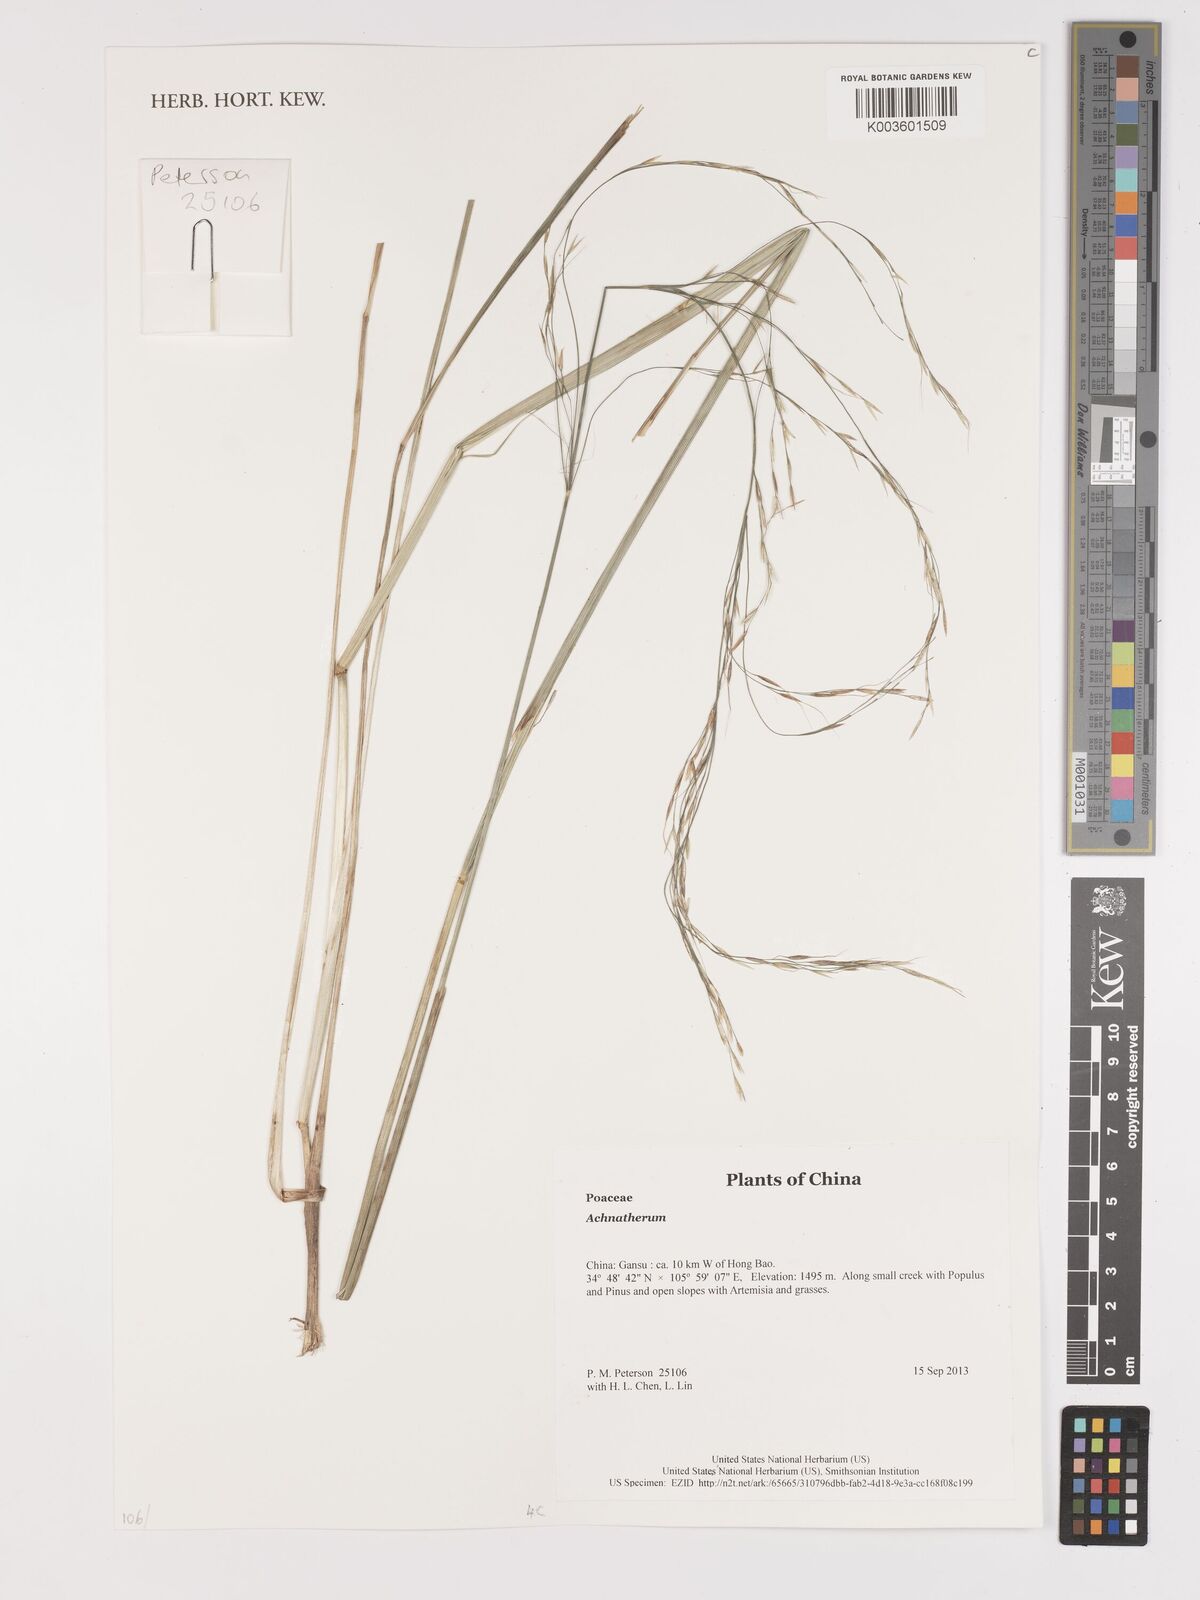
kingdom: Plantae
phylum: Tracheophyta
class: Liliopsida
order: Poales
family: Poaceae
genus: Stipa
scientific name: Stipa
